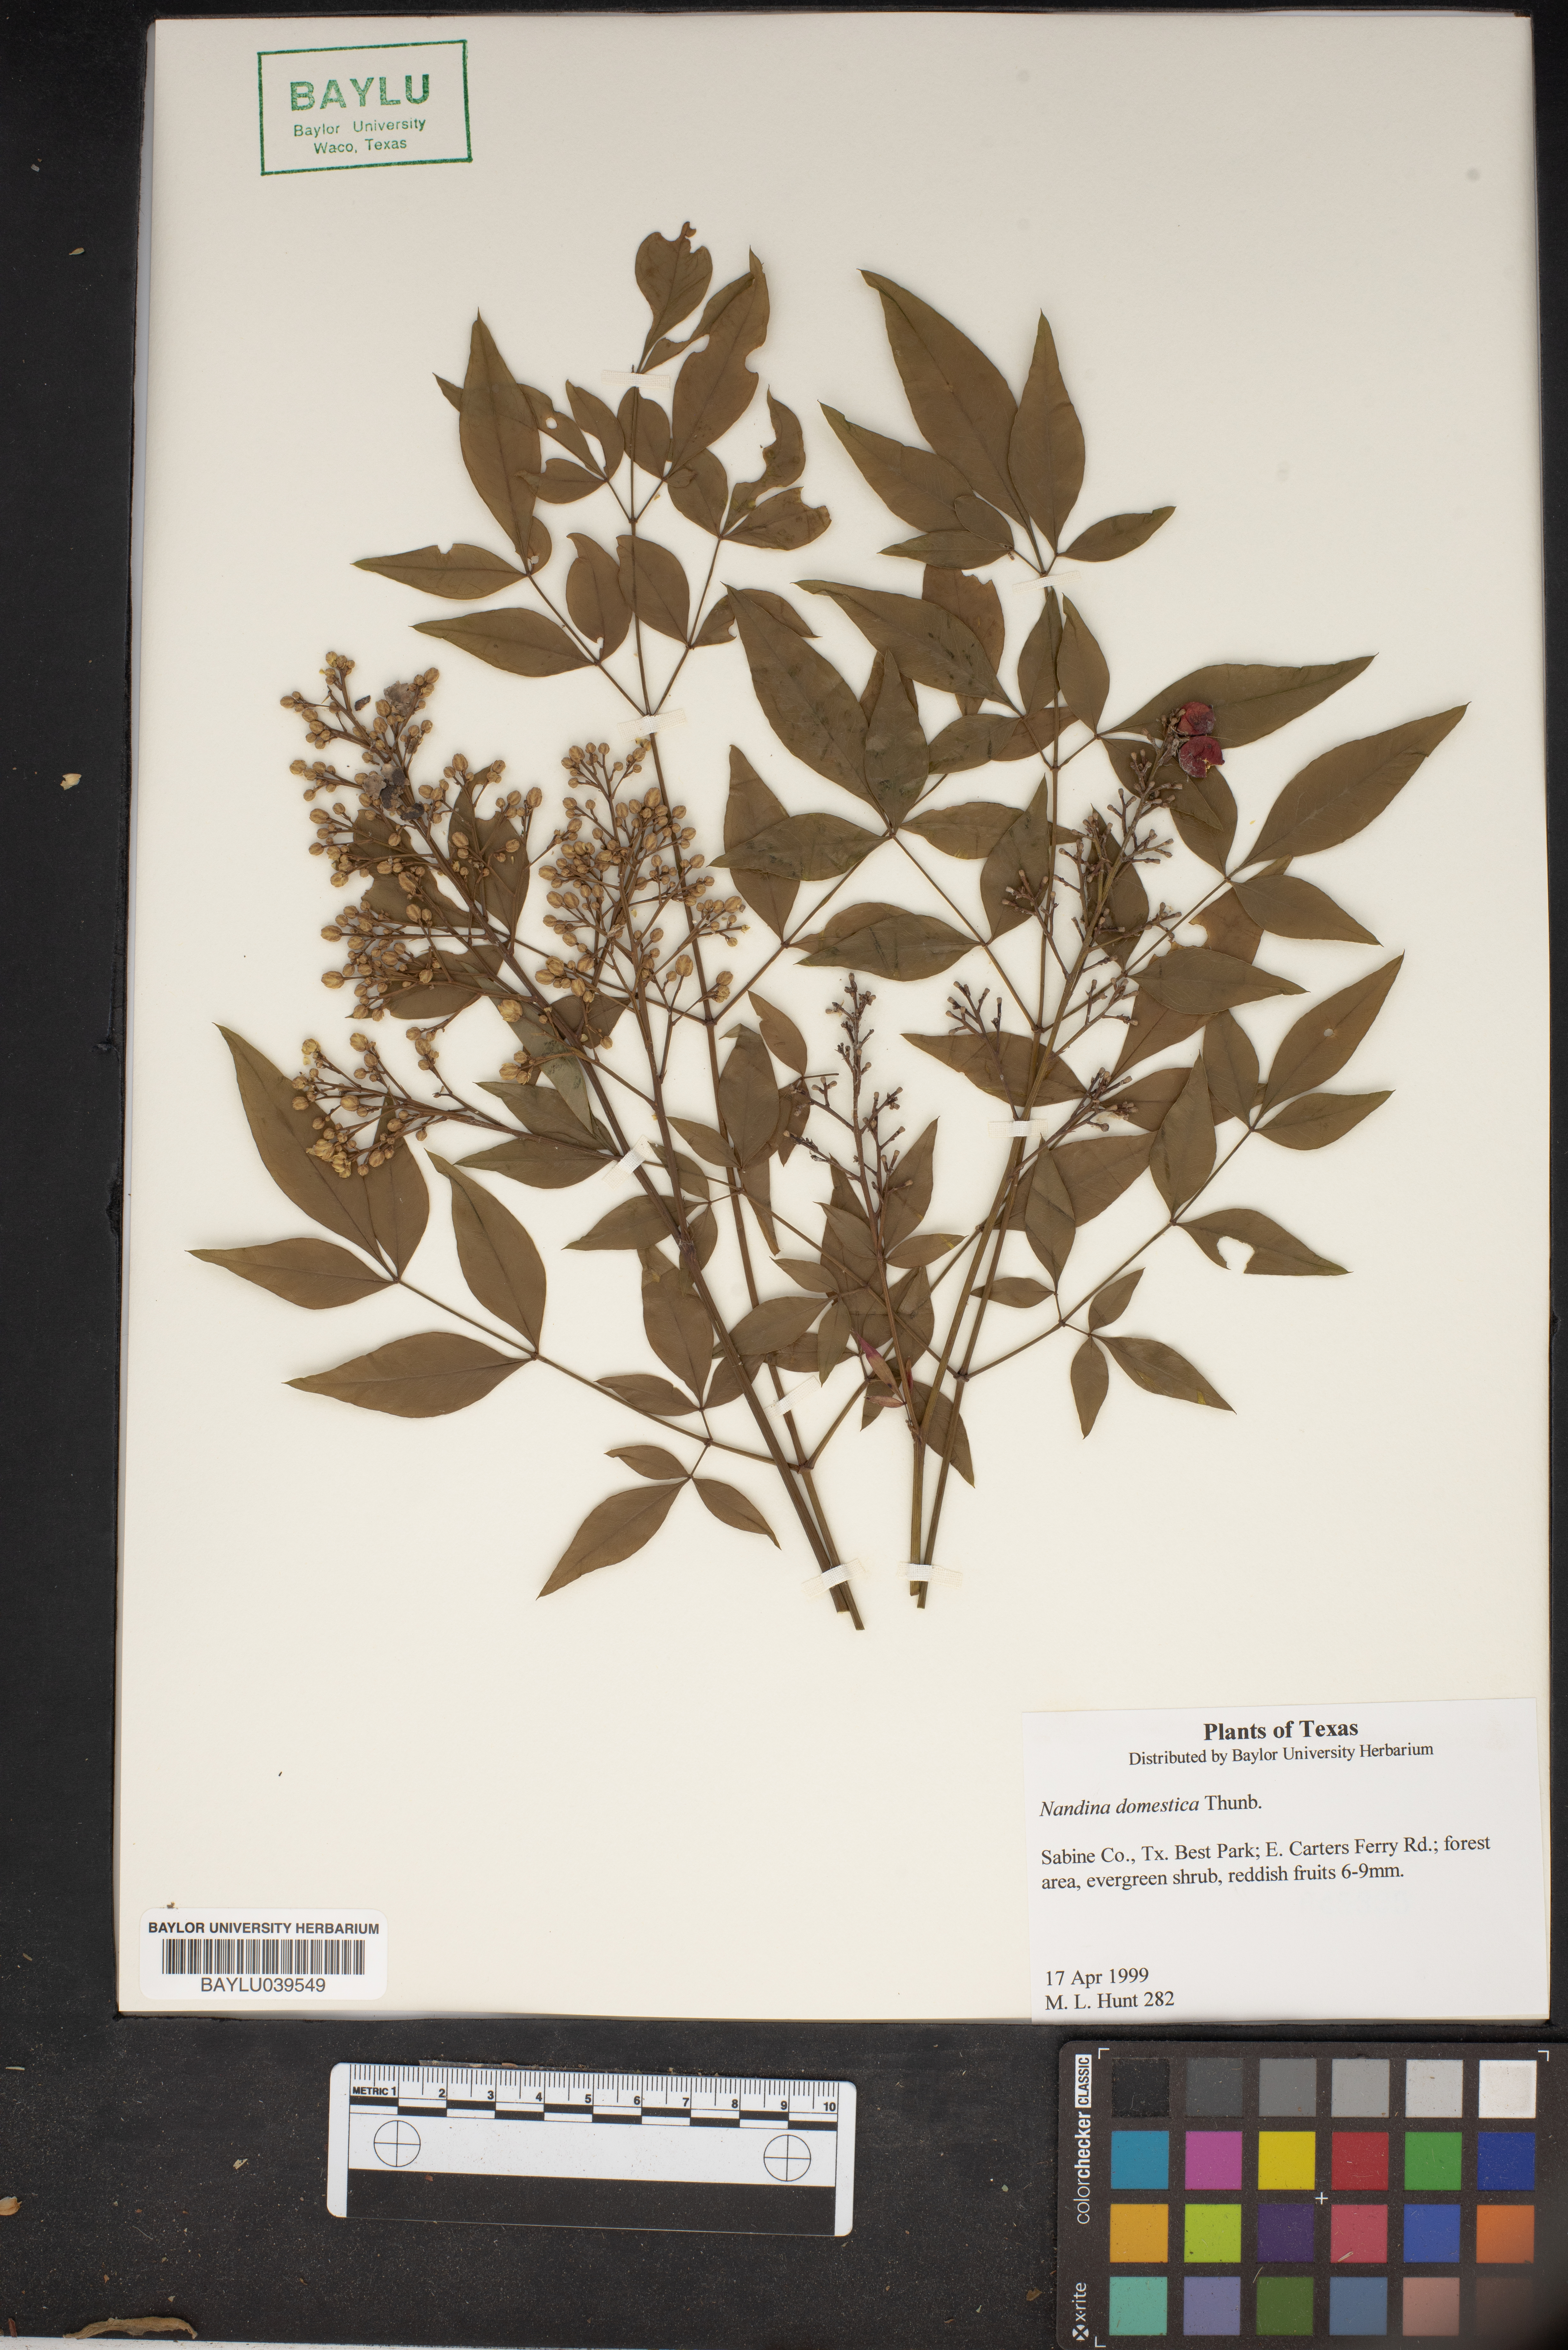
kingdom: Plantae
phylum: Tracheophyta
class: Magnoliopsida
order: Ranunculales
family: Berberidaceae
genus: Nandina
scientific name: Nandina domestica
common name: Sacred bamboo
